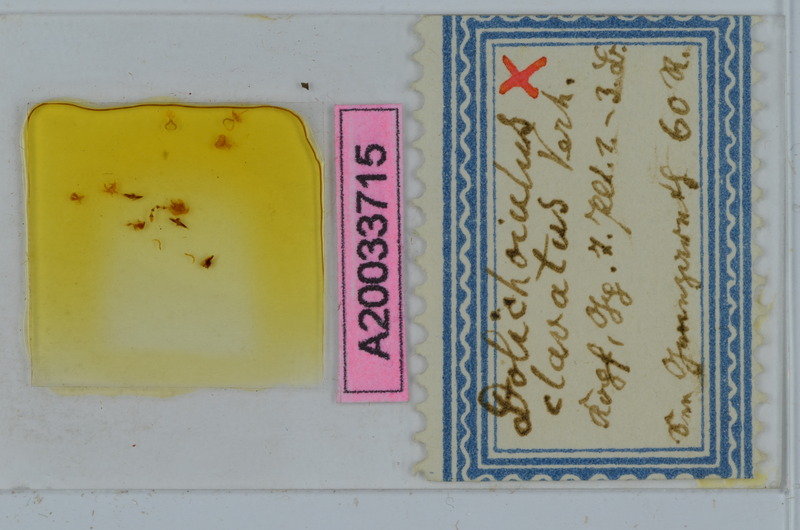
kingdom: Animalia
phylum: Arthropoda
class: Diplopoda
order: Julida
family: Julidae
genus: Dolichoiulus
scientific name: Dolichoiulus clavatus
